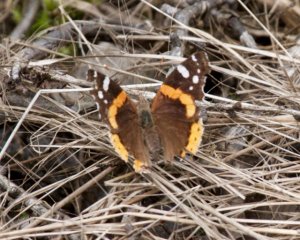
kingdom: Animalia
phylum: Arthropoda
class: Insecta
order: Lepidoptera
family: Nymphalidae
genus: Vanessa
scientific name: Vanessa atalanta
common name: Red Admiral
